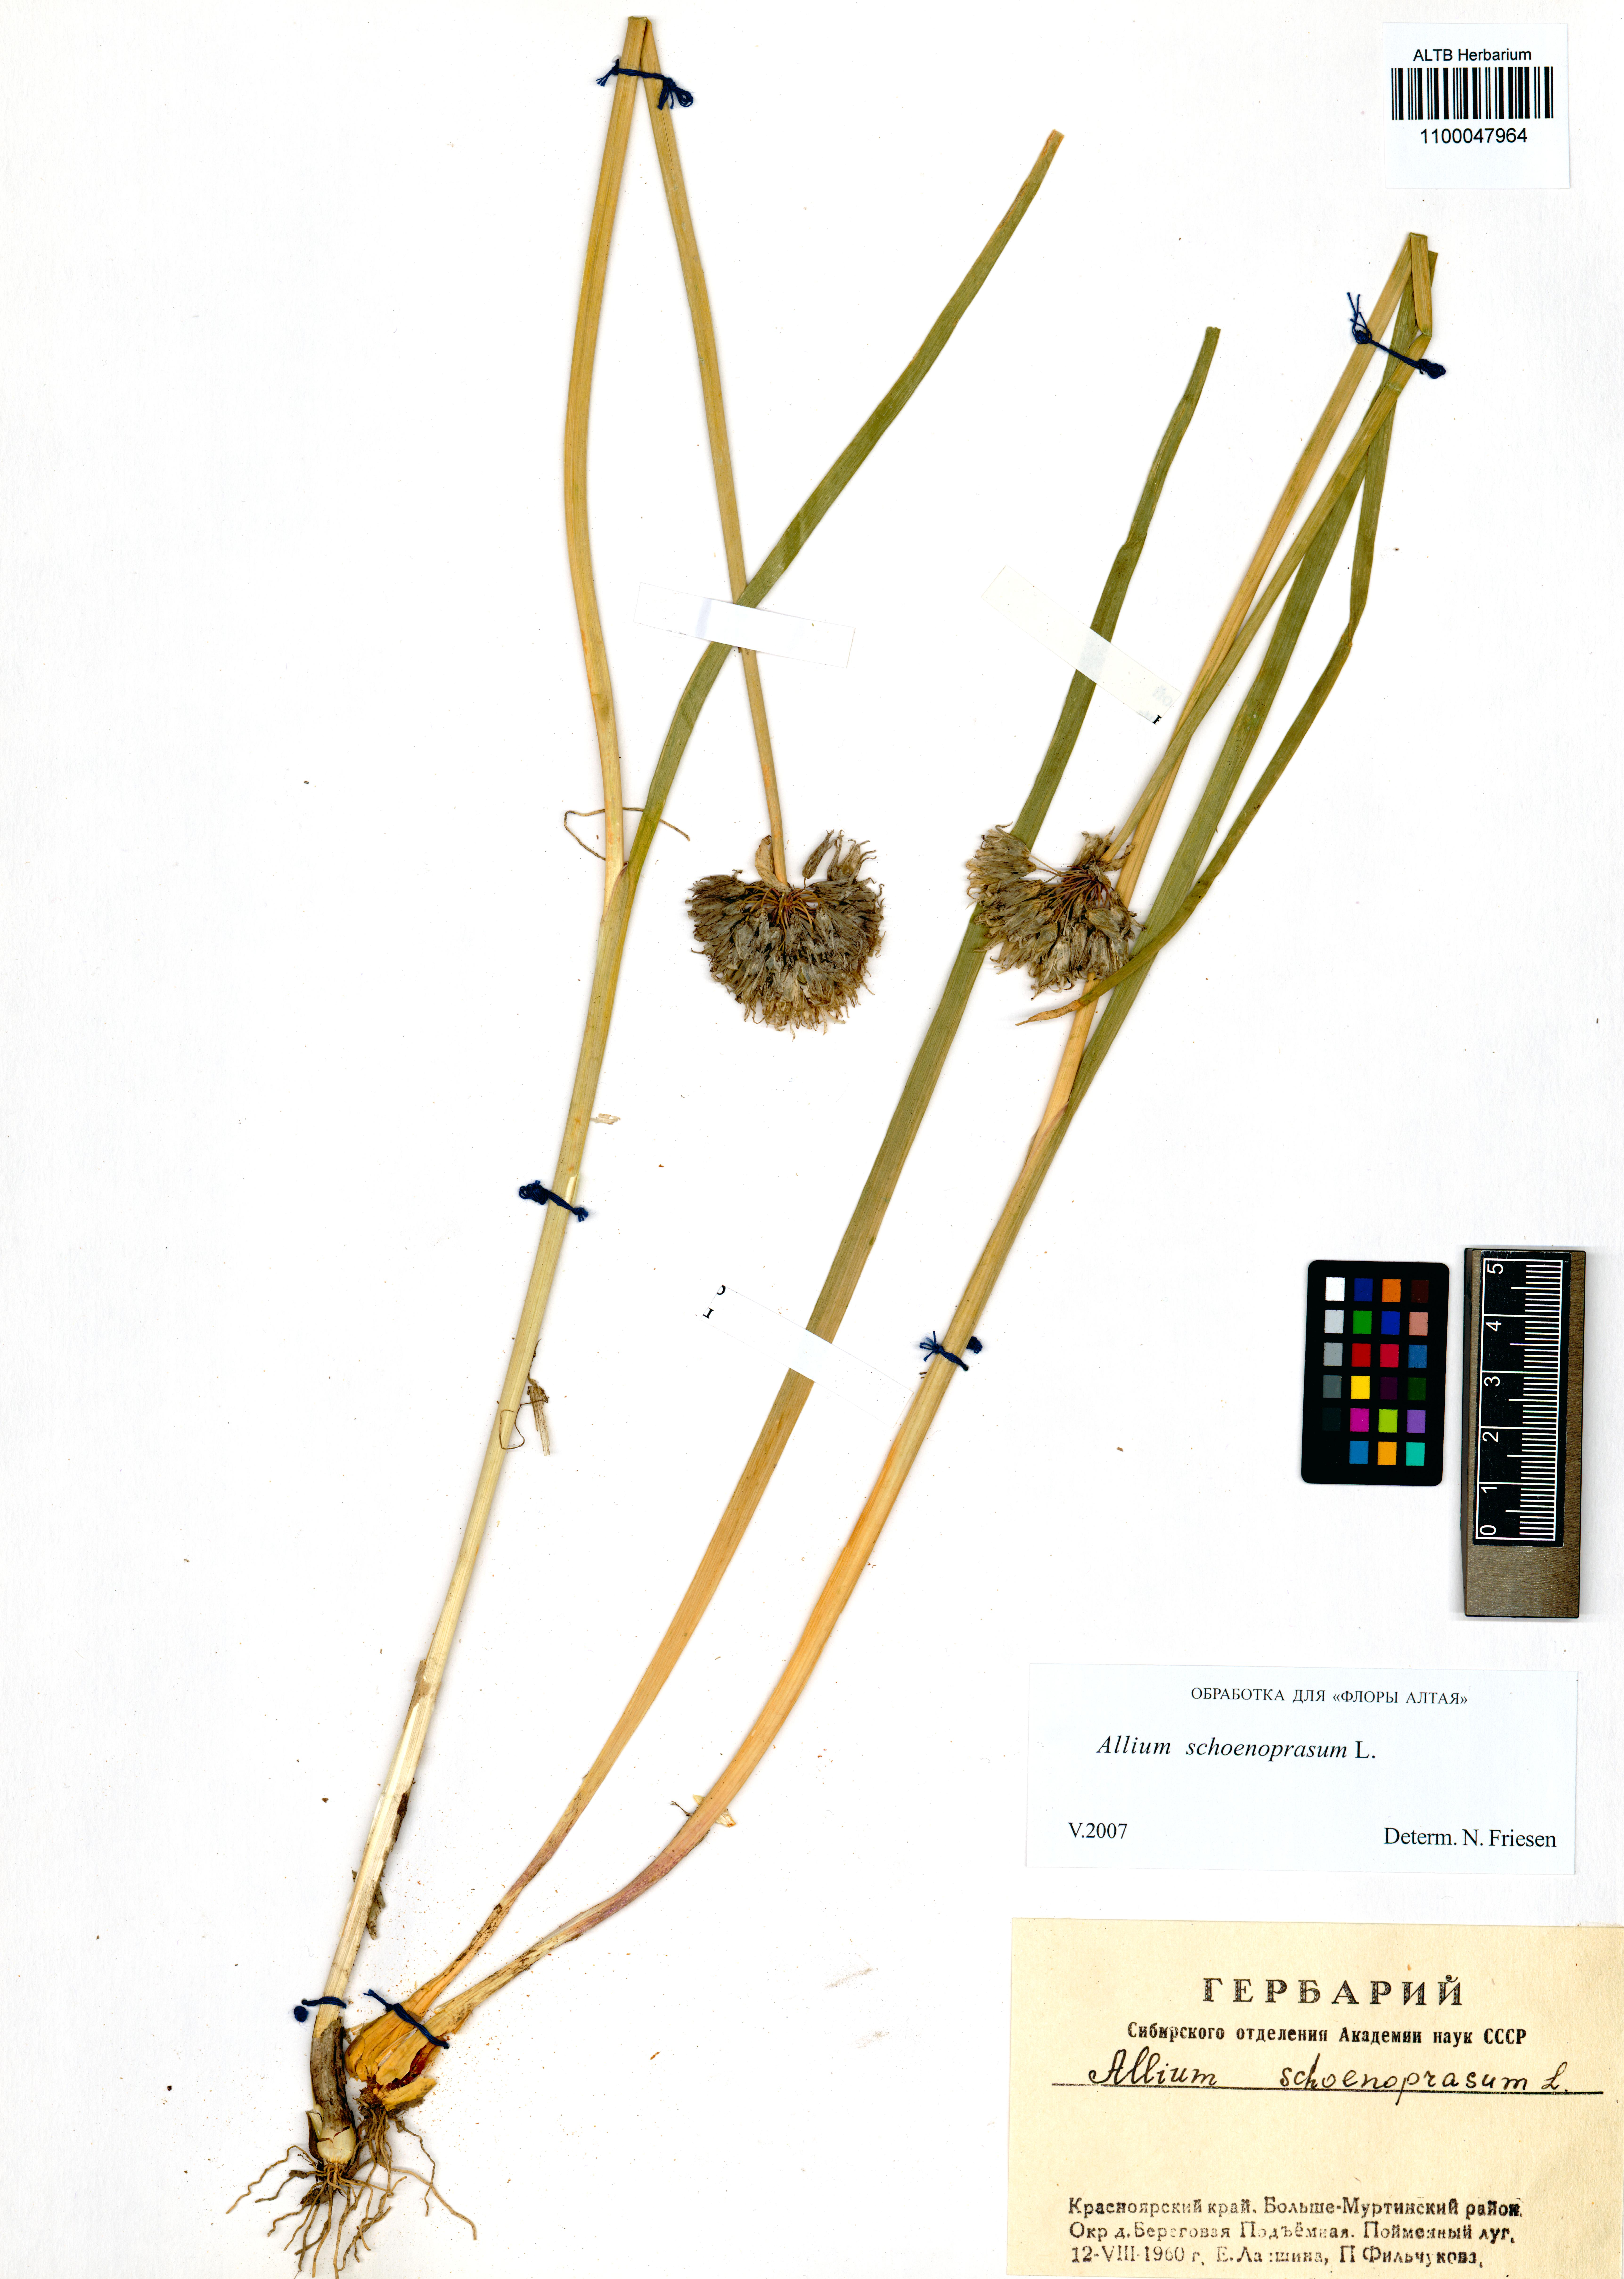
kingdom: Plantae
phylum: Tracheophyta
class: Liliopsida
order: Asparagales
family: Amaryllidaceae
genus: Allium
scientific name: Allium schoenoprasum
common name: Chives
